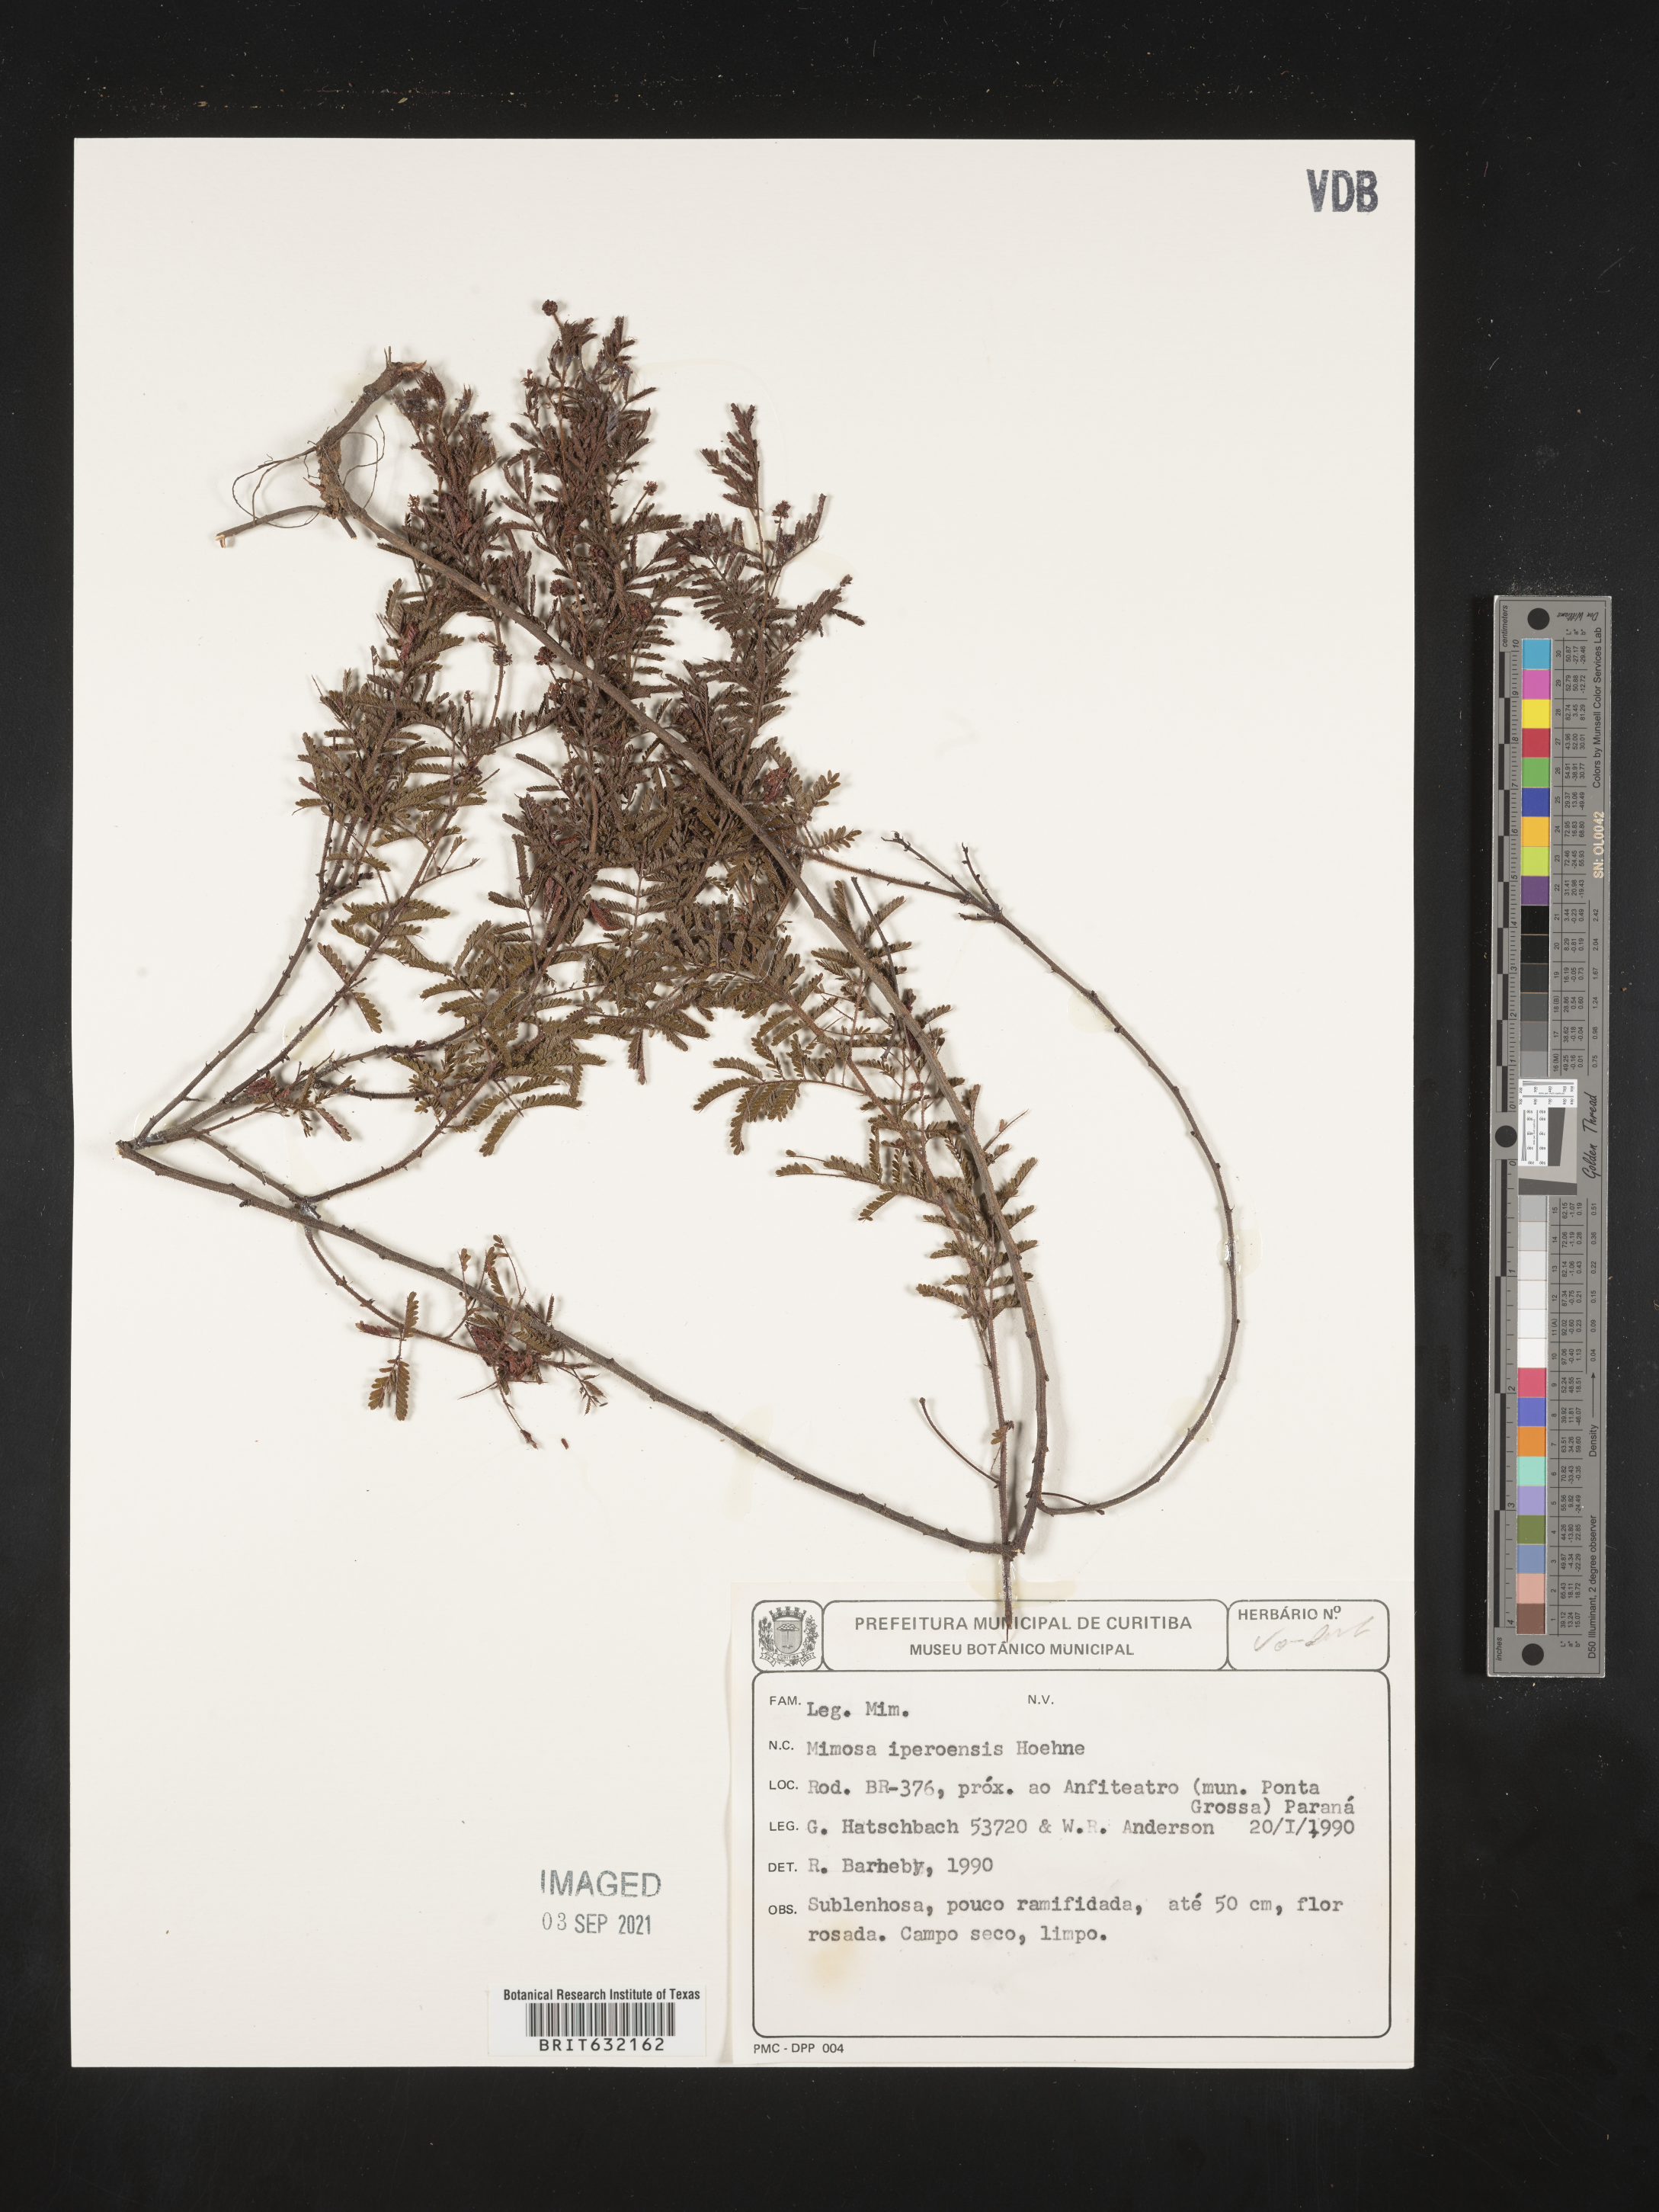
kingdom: Plantae
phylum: Tracheophyta
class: Magnoliopsida
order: Fabales
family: Fabaceae
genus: Mimosa
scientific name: Mimosa
